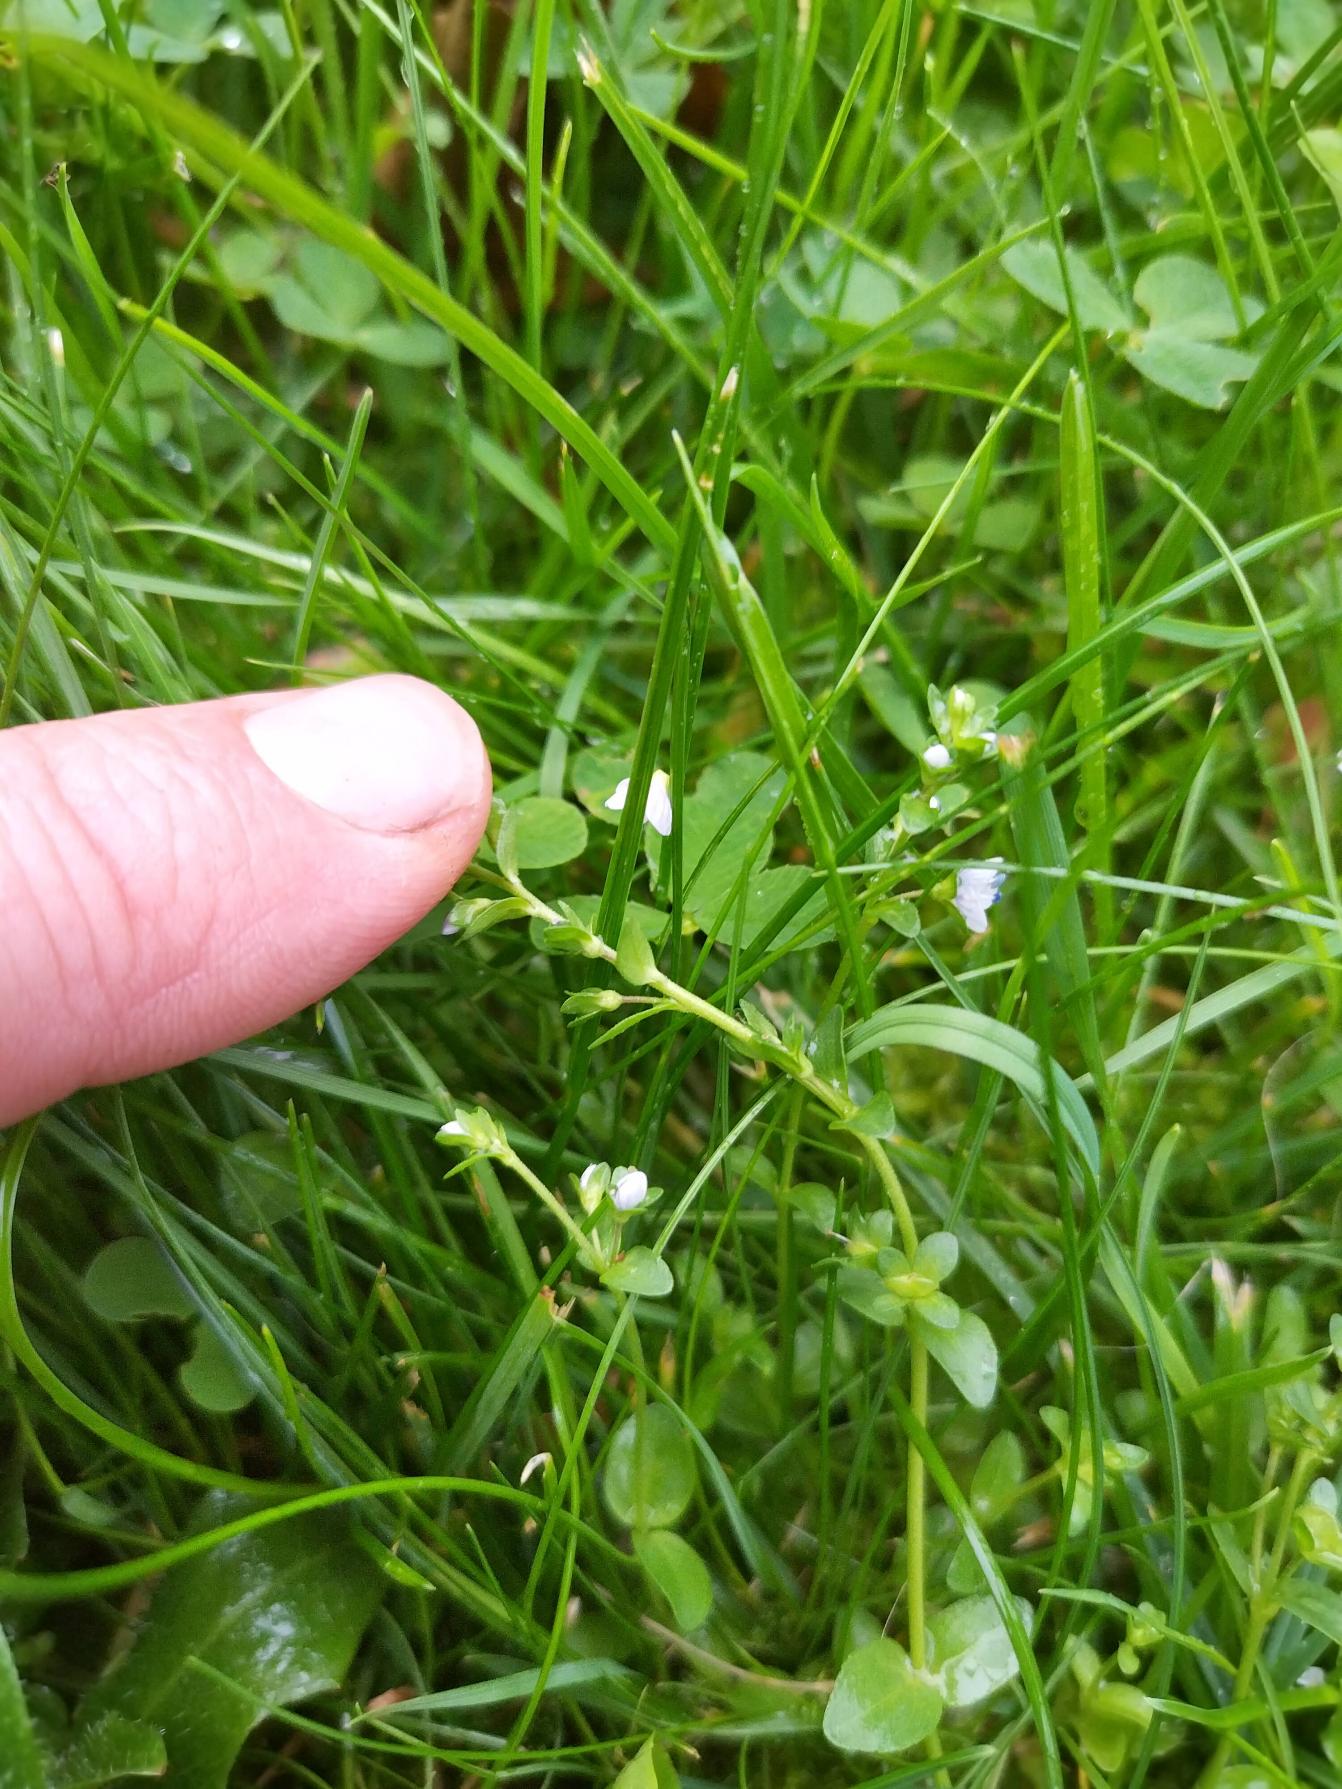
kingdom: Plantae
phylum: Tracheophyta
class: Magnoliopsida
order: Lamiales
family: Plantaginaceae
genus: Veronica
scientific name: Veronica serpyllifolia
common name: Glat ærenpris
